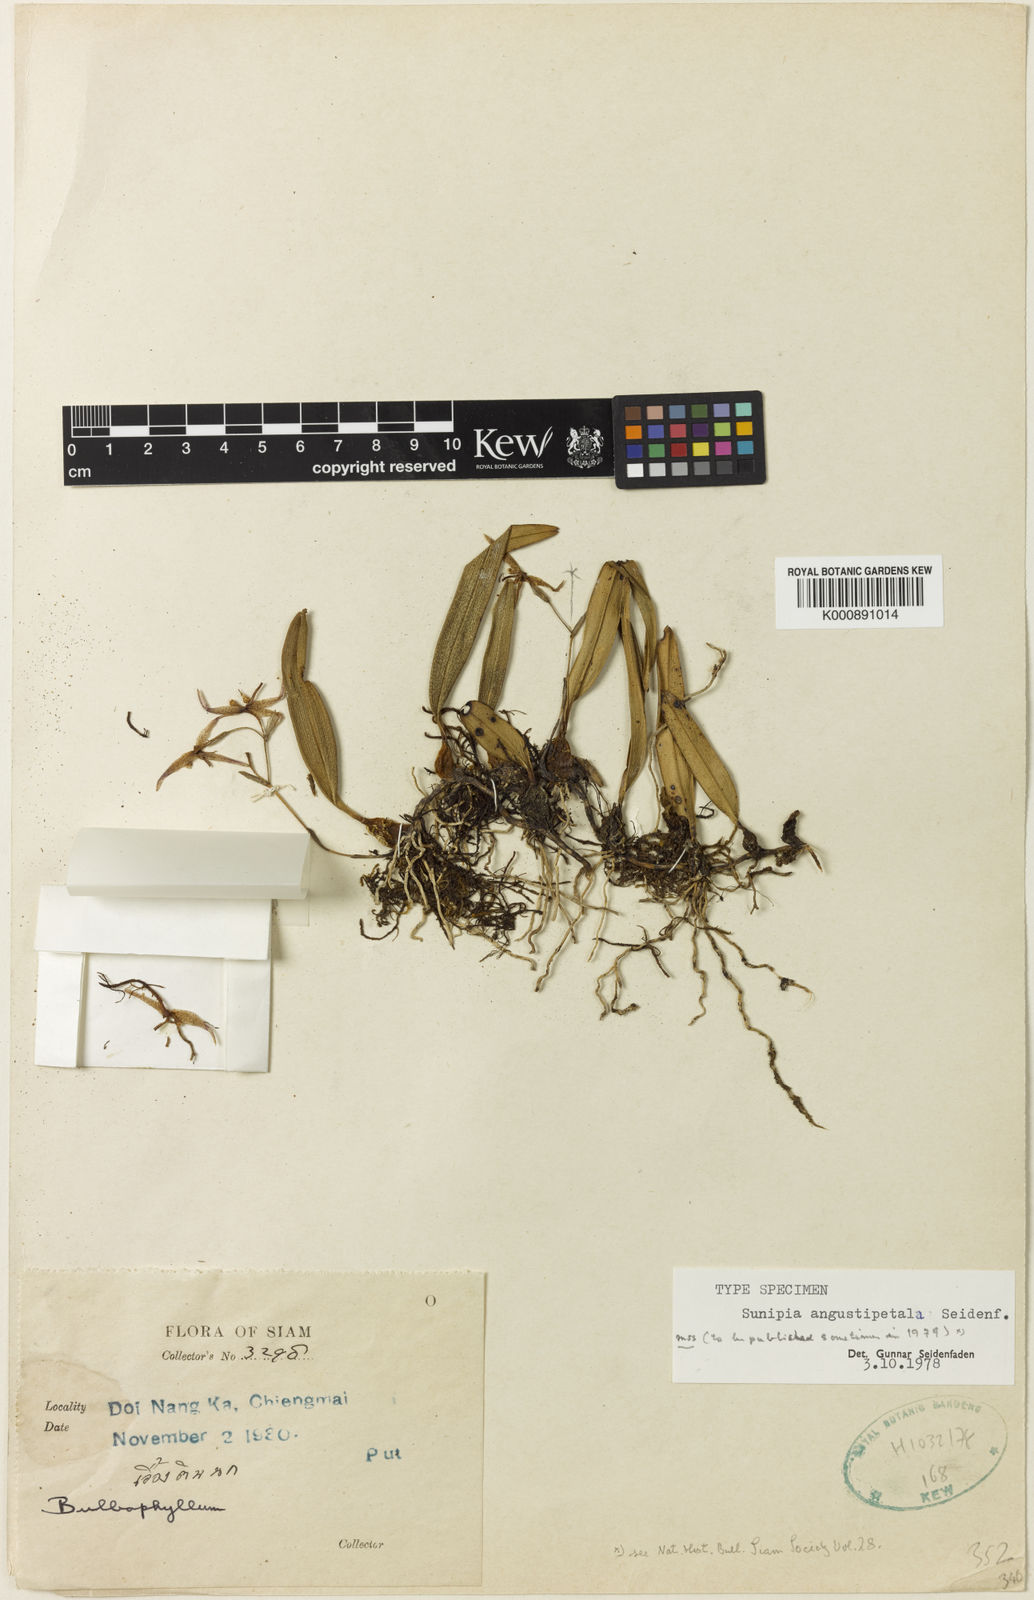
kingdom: Plantae
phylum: Tracheophyta
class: Liliopsida
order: Asparagales
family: Orchidaceae
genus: Bulbophyllum
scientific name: Bulbophyllum angustipetalum
